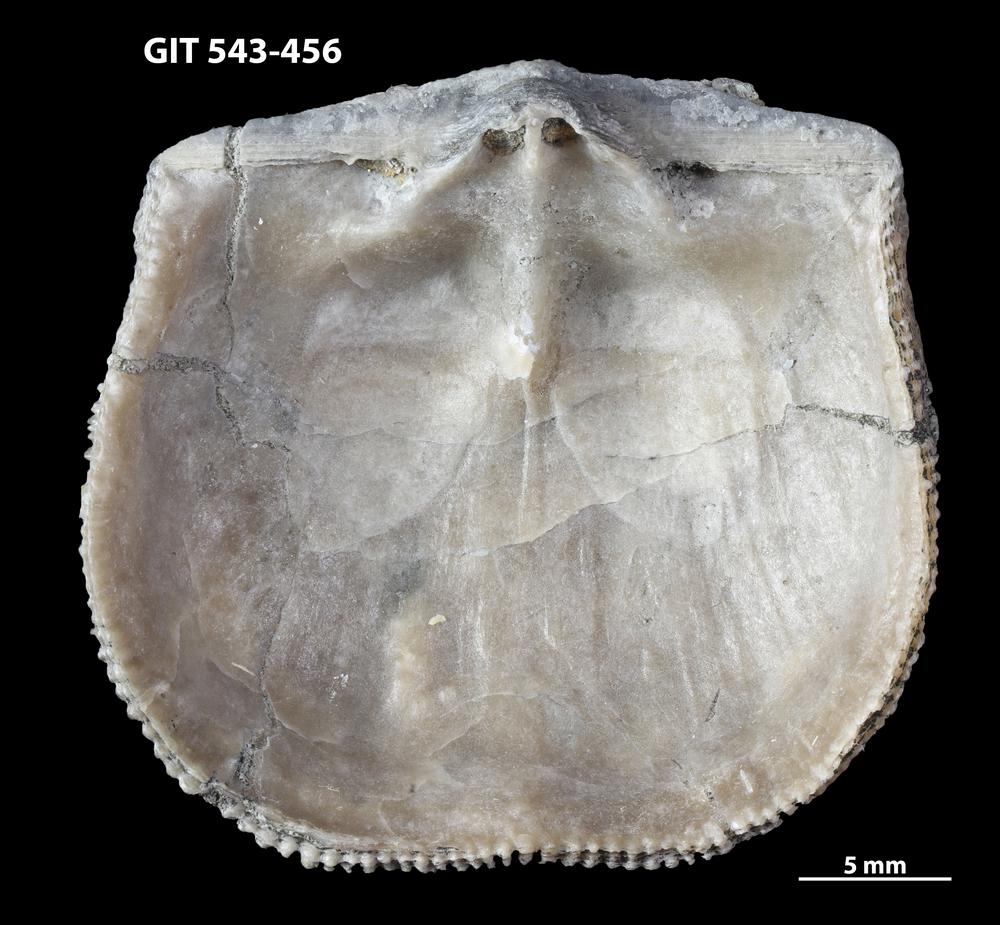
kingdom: Animalia
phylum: Brachiopoda
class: Rhynchonellata
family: Clitambonitidae
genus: Clitambonites
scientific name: Clitambonites squamatus
